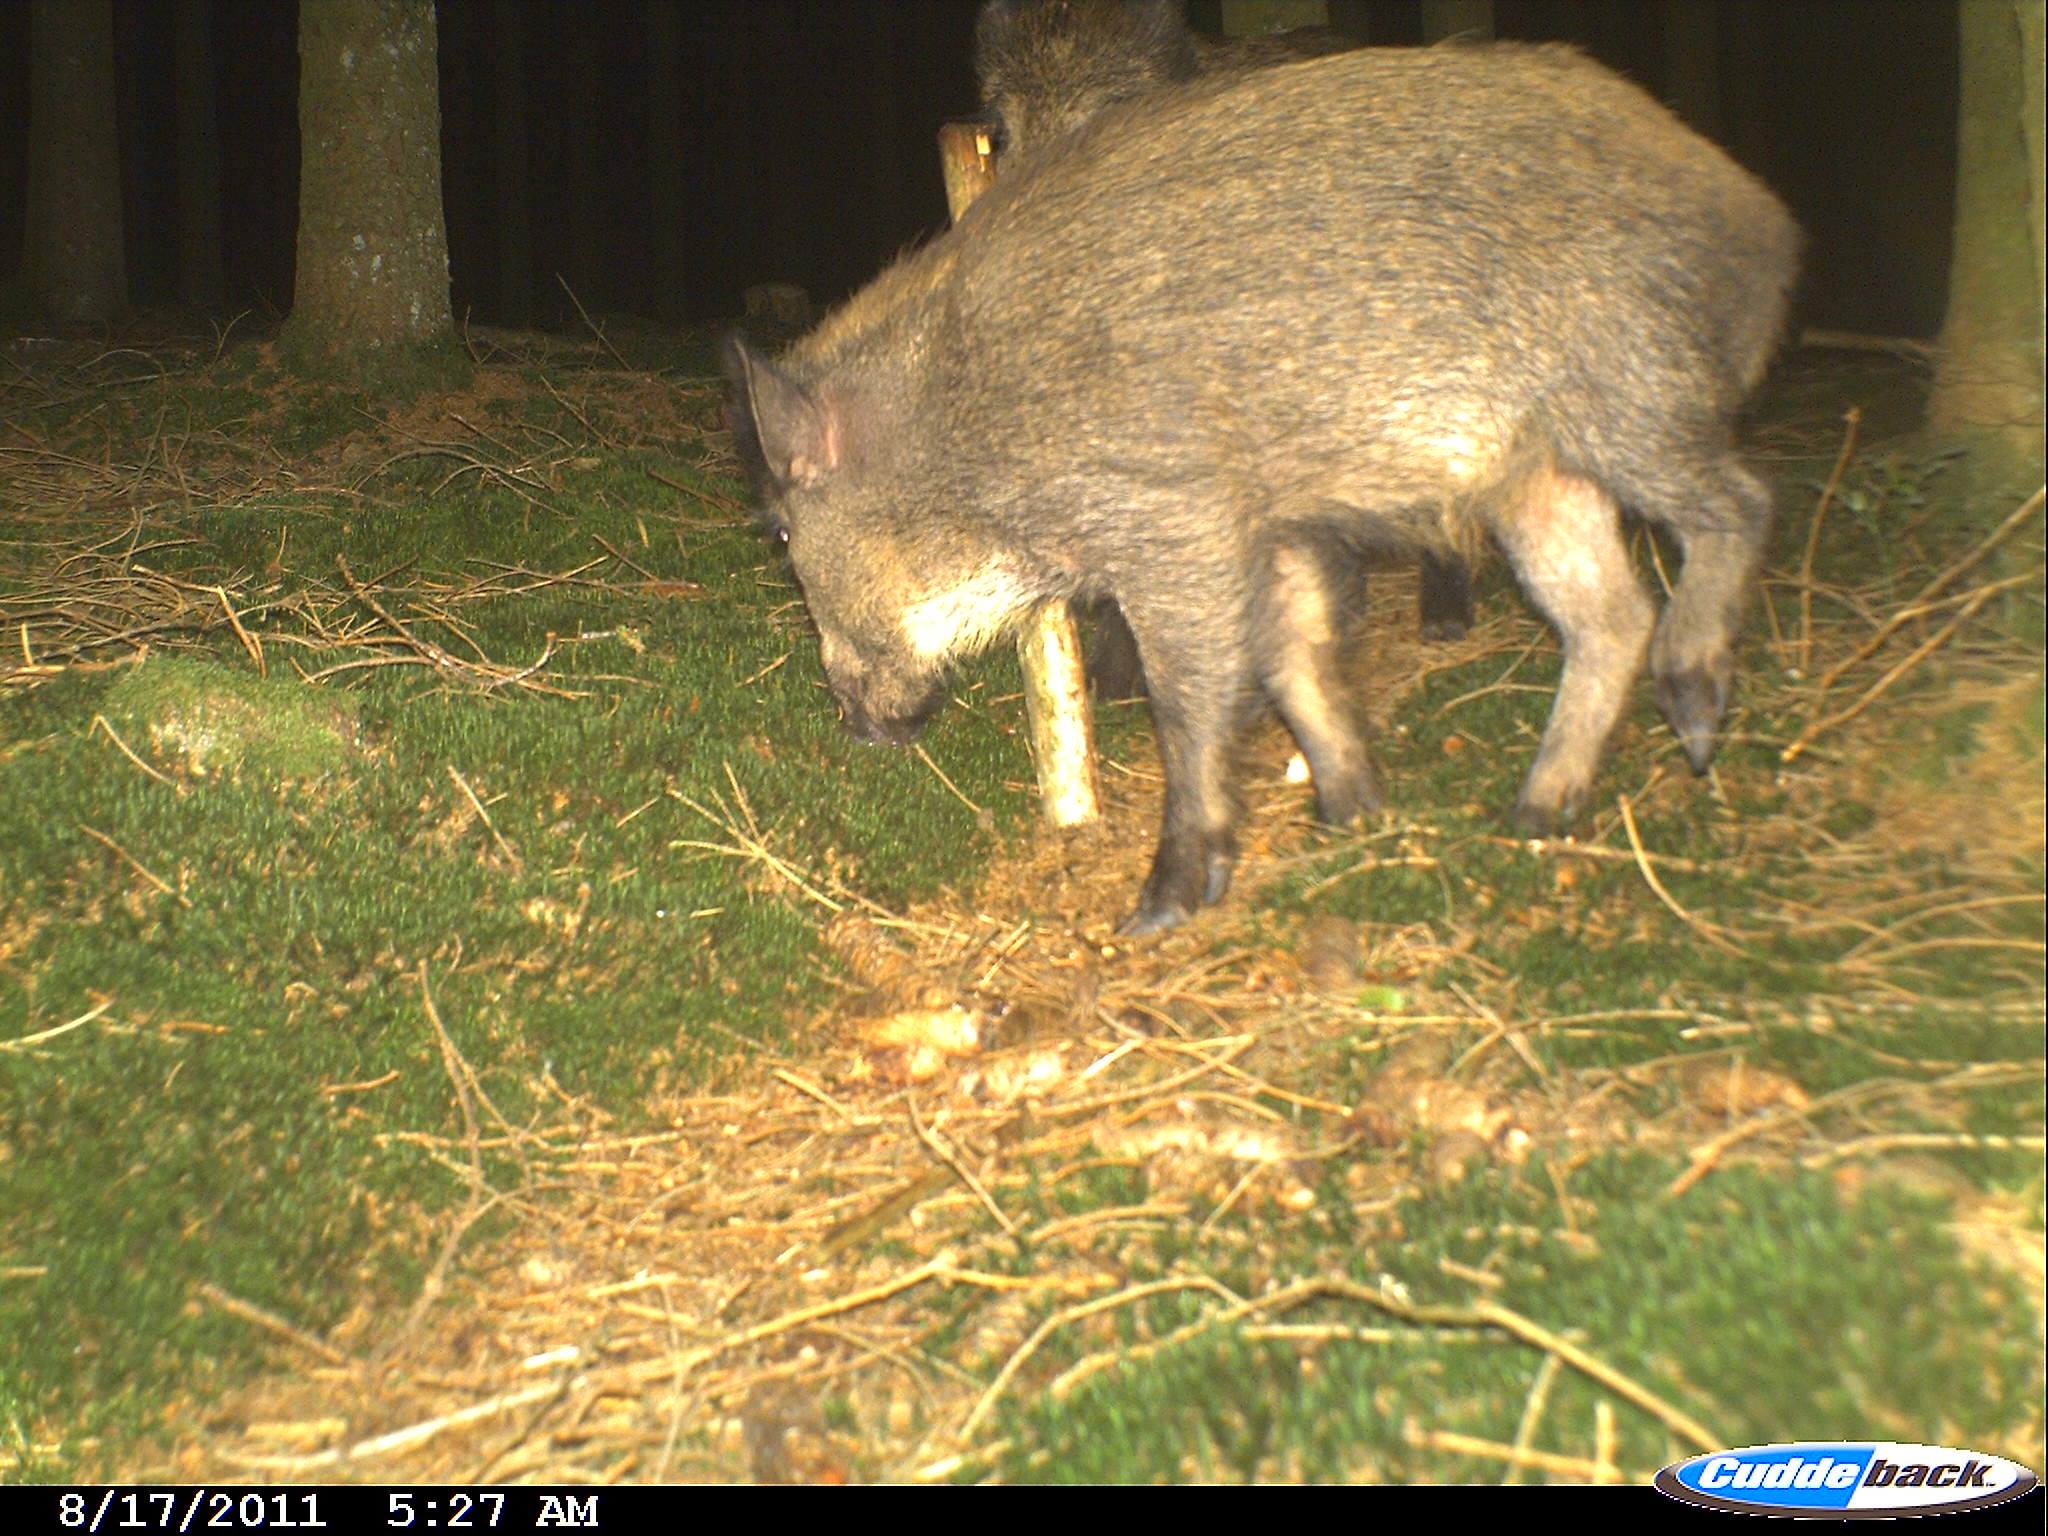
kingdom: Animalia
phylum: Chordata
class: Mammalia
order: Artiodactyla
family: Suidae
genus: Sus
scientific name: Sus scrofa
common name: Wild boar
